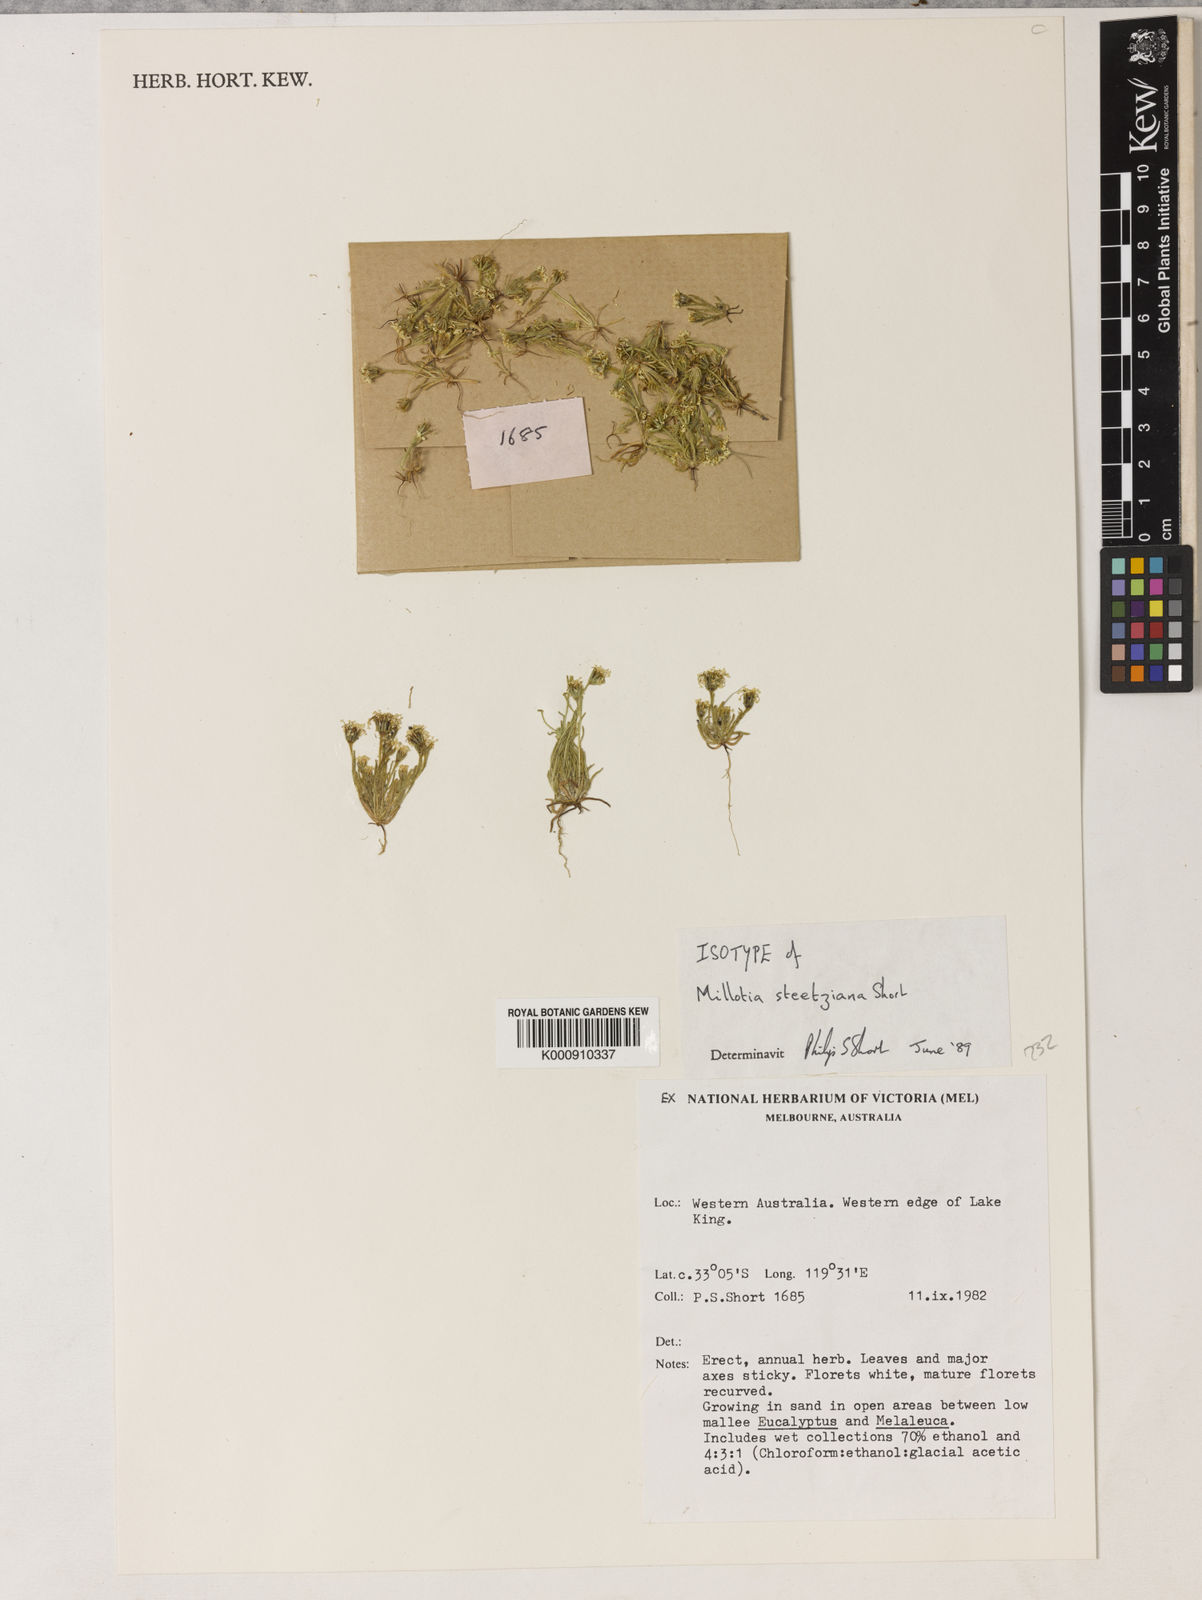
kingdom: Plantae
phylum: Tracheophyta
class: Magnoliopsida
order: Asterales
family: Asteraceae
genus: Millotia
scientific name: Millotia steetziana
